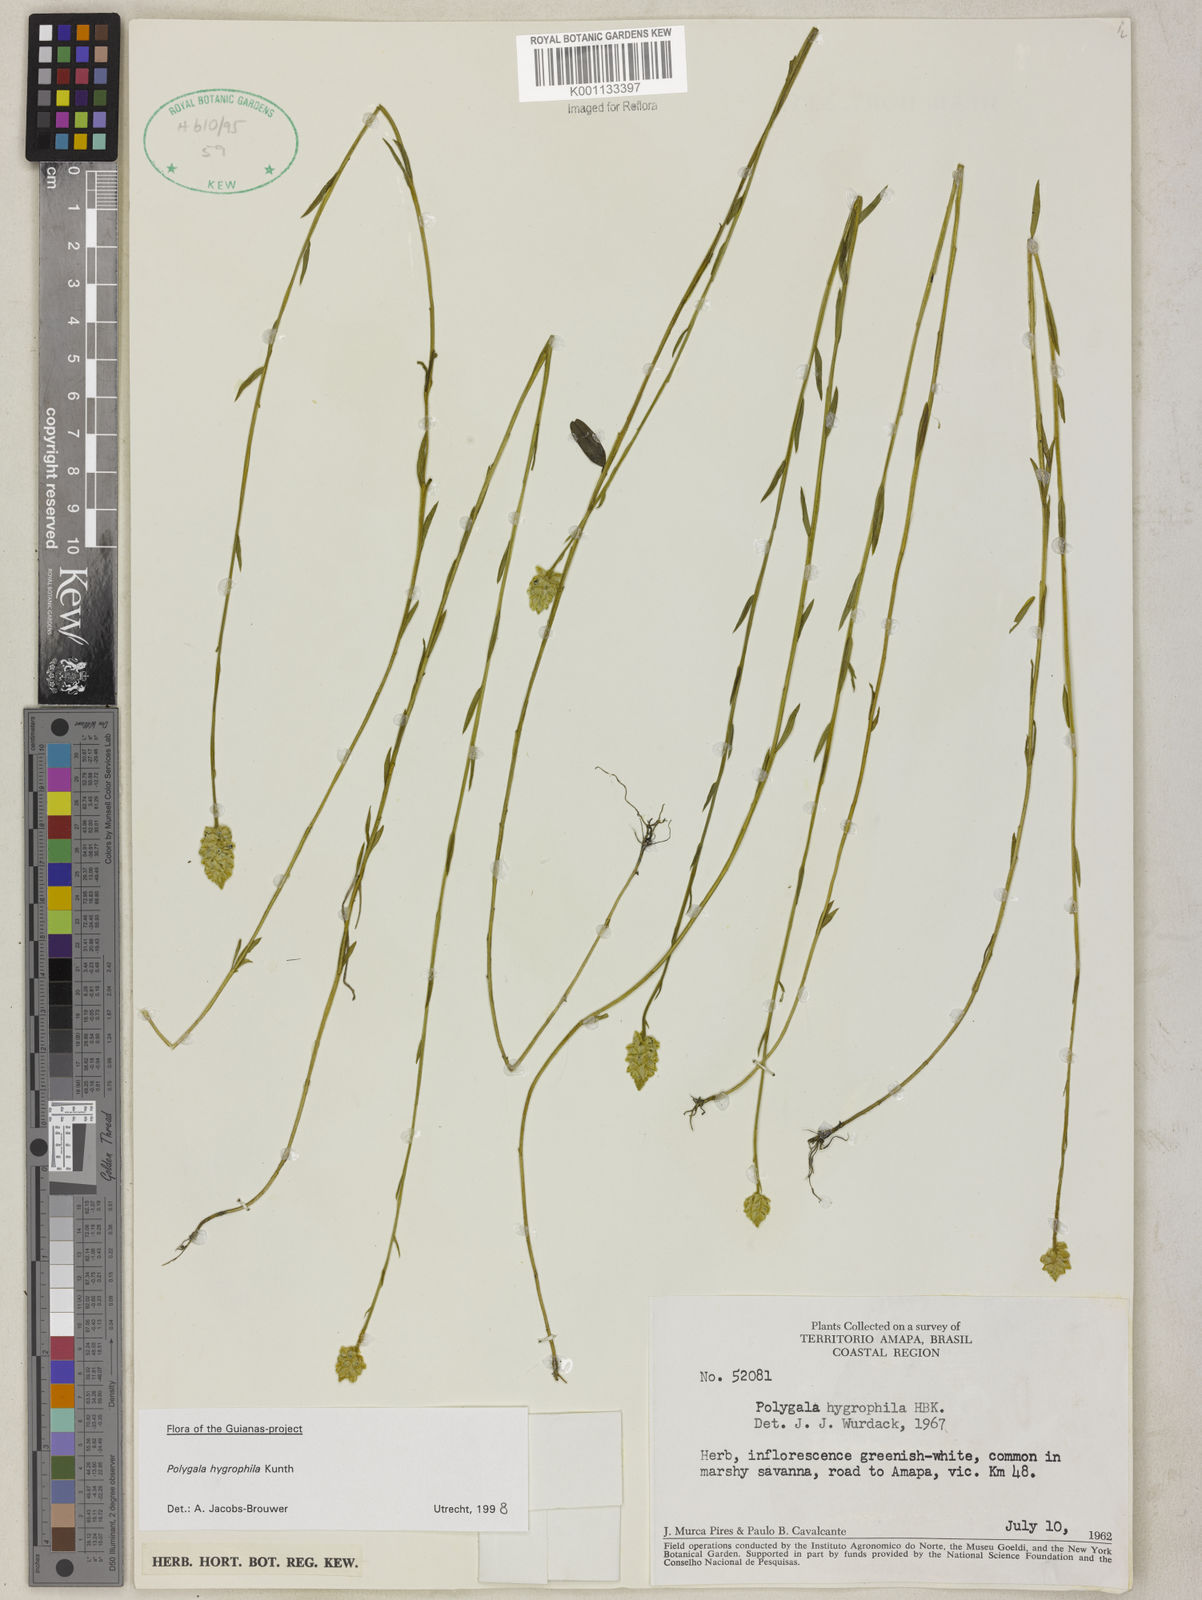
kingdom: Plantae
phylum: Tracheophyta
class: Magnoliopsida
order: Fabales
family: Polygalaceae
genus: Polygala
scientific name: Polygala hygrophila
